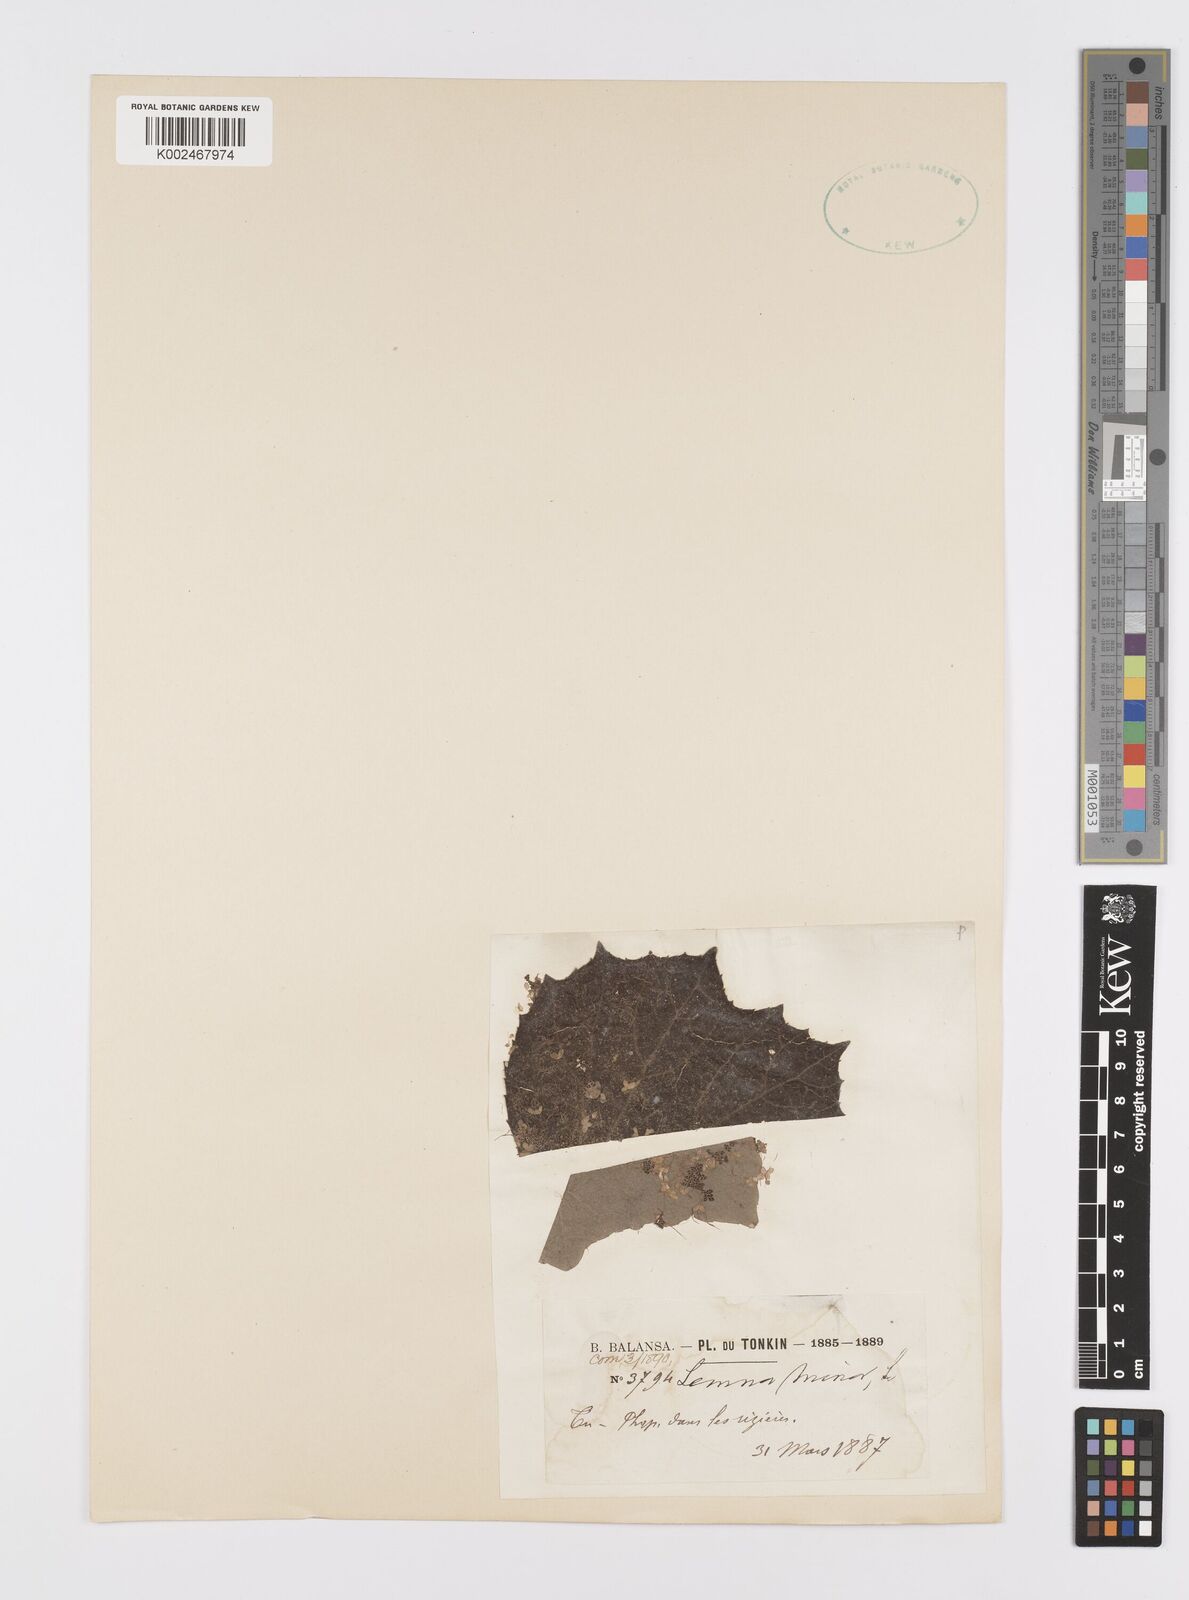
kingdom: Plantae
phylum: Tracheophyta
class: Liliopsida
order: Alismatales
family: Araceae
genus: Lemna
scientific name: Lemna minor
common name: Common duckweed
